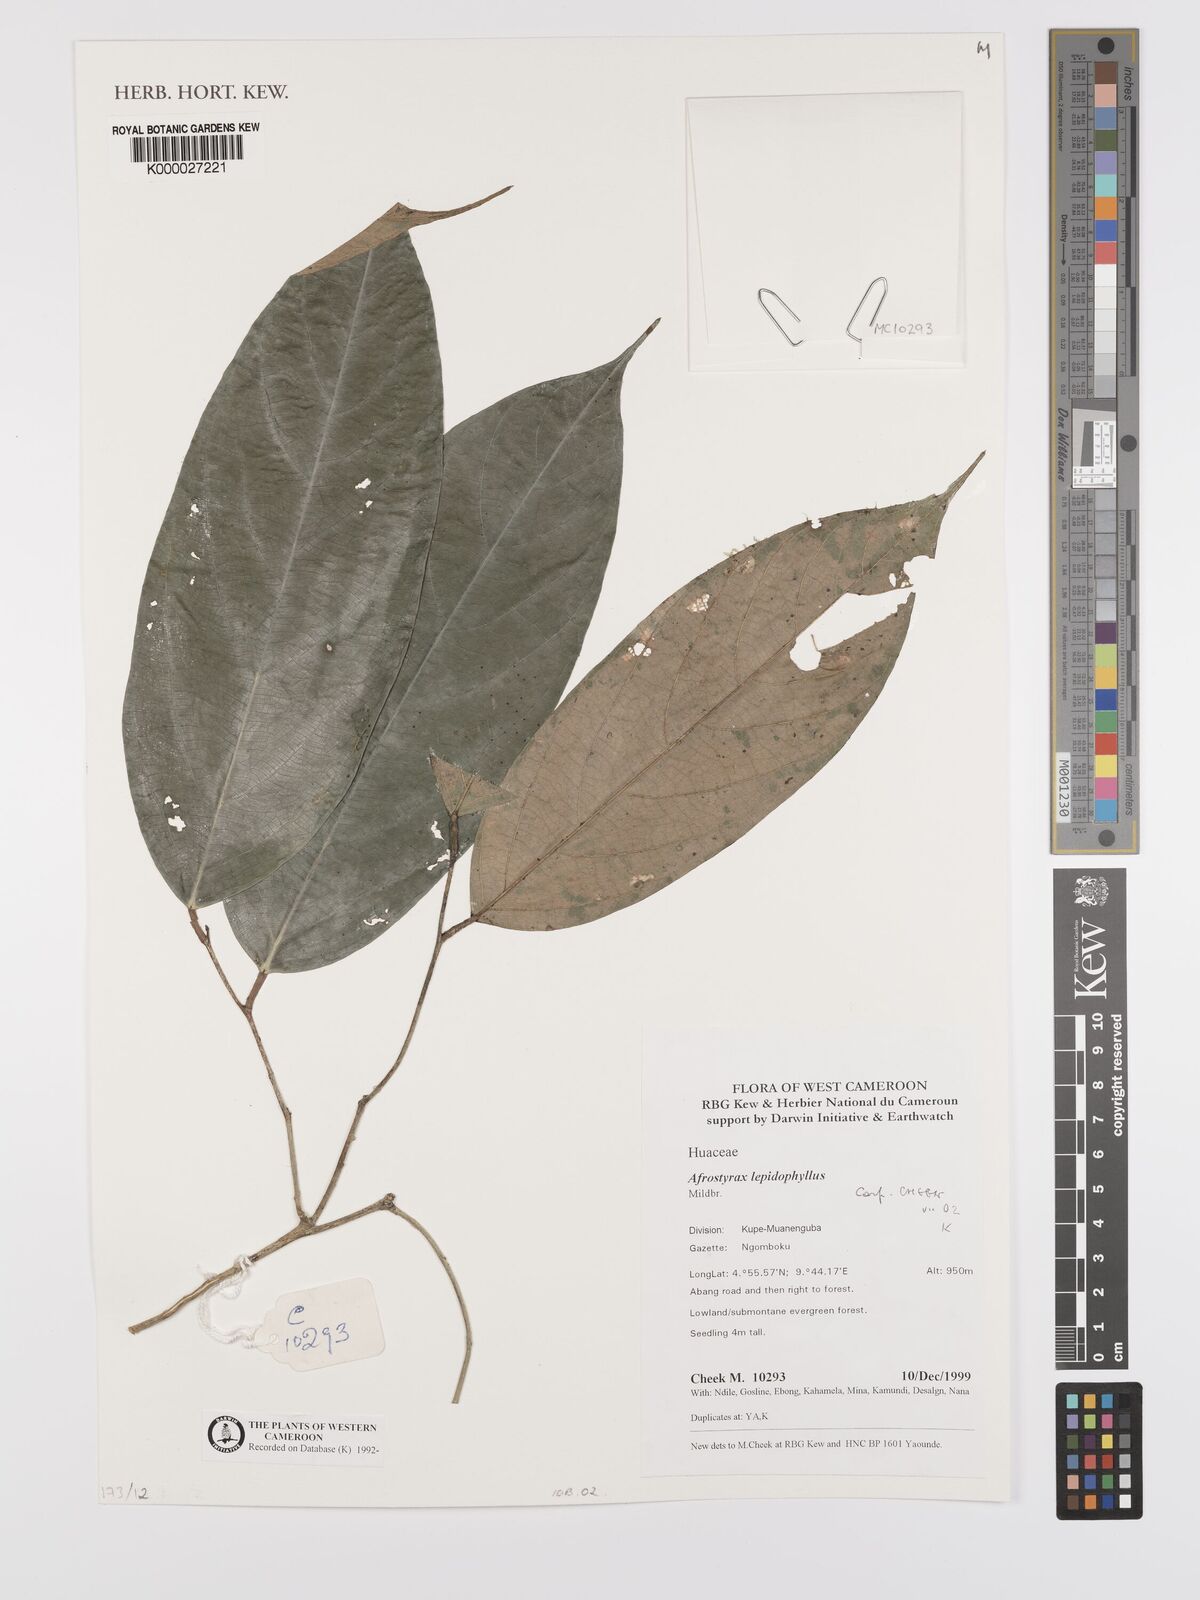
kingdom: Plantae
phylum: Tracheophyta
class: Magnoliopsida
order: Oxalidales
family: Huaceae
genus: Afrostyrax
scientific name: Afrostyrax lepidophyllus
